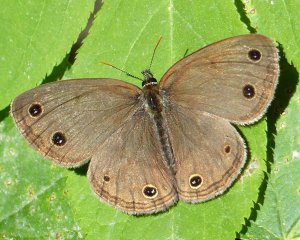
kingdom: Animalia
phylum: Arthropoda
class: Insecta
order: Lepidoptera
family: Nymphalidae
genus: Euptychia
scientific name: Euptychia cymela
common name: Little Wood Satyr
